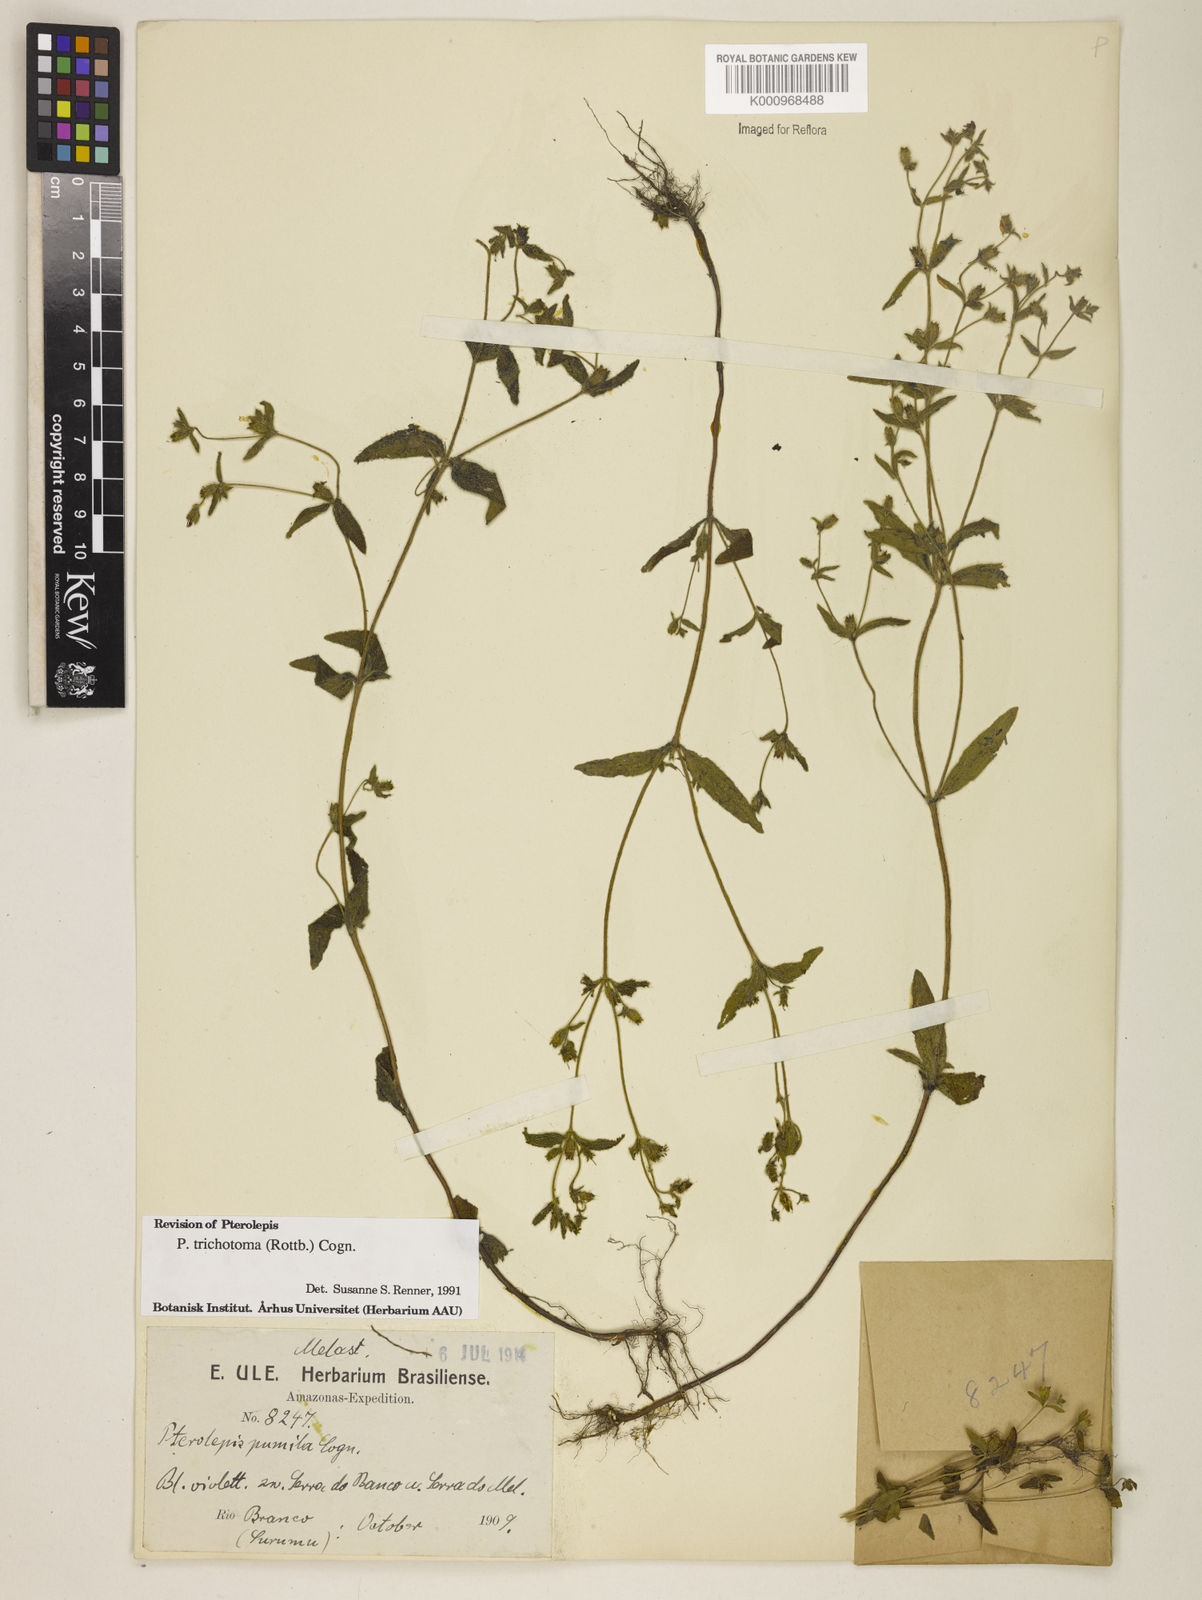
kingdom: Plantae
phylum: Tracheophyta
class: Magnoliopsida
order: Myrtales
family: Melastomataceae
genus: Pterolepis
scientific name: Pterolepis trichotoma
